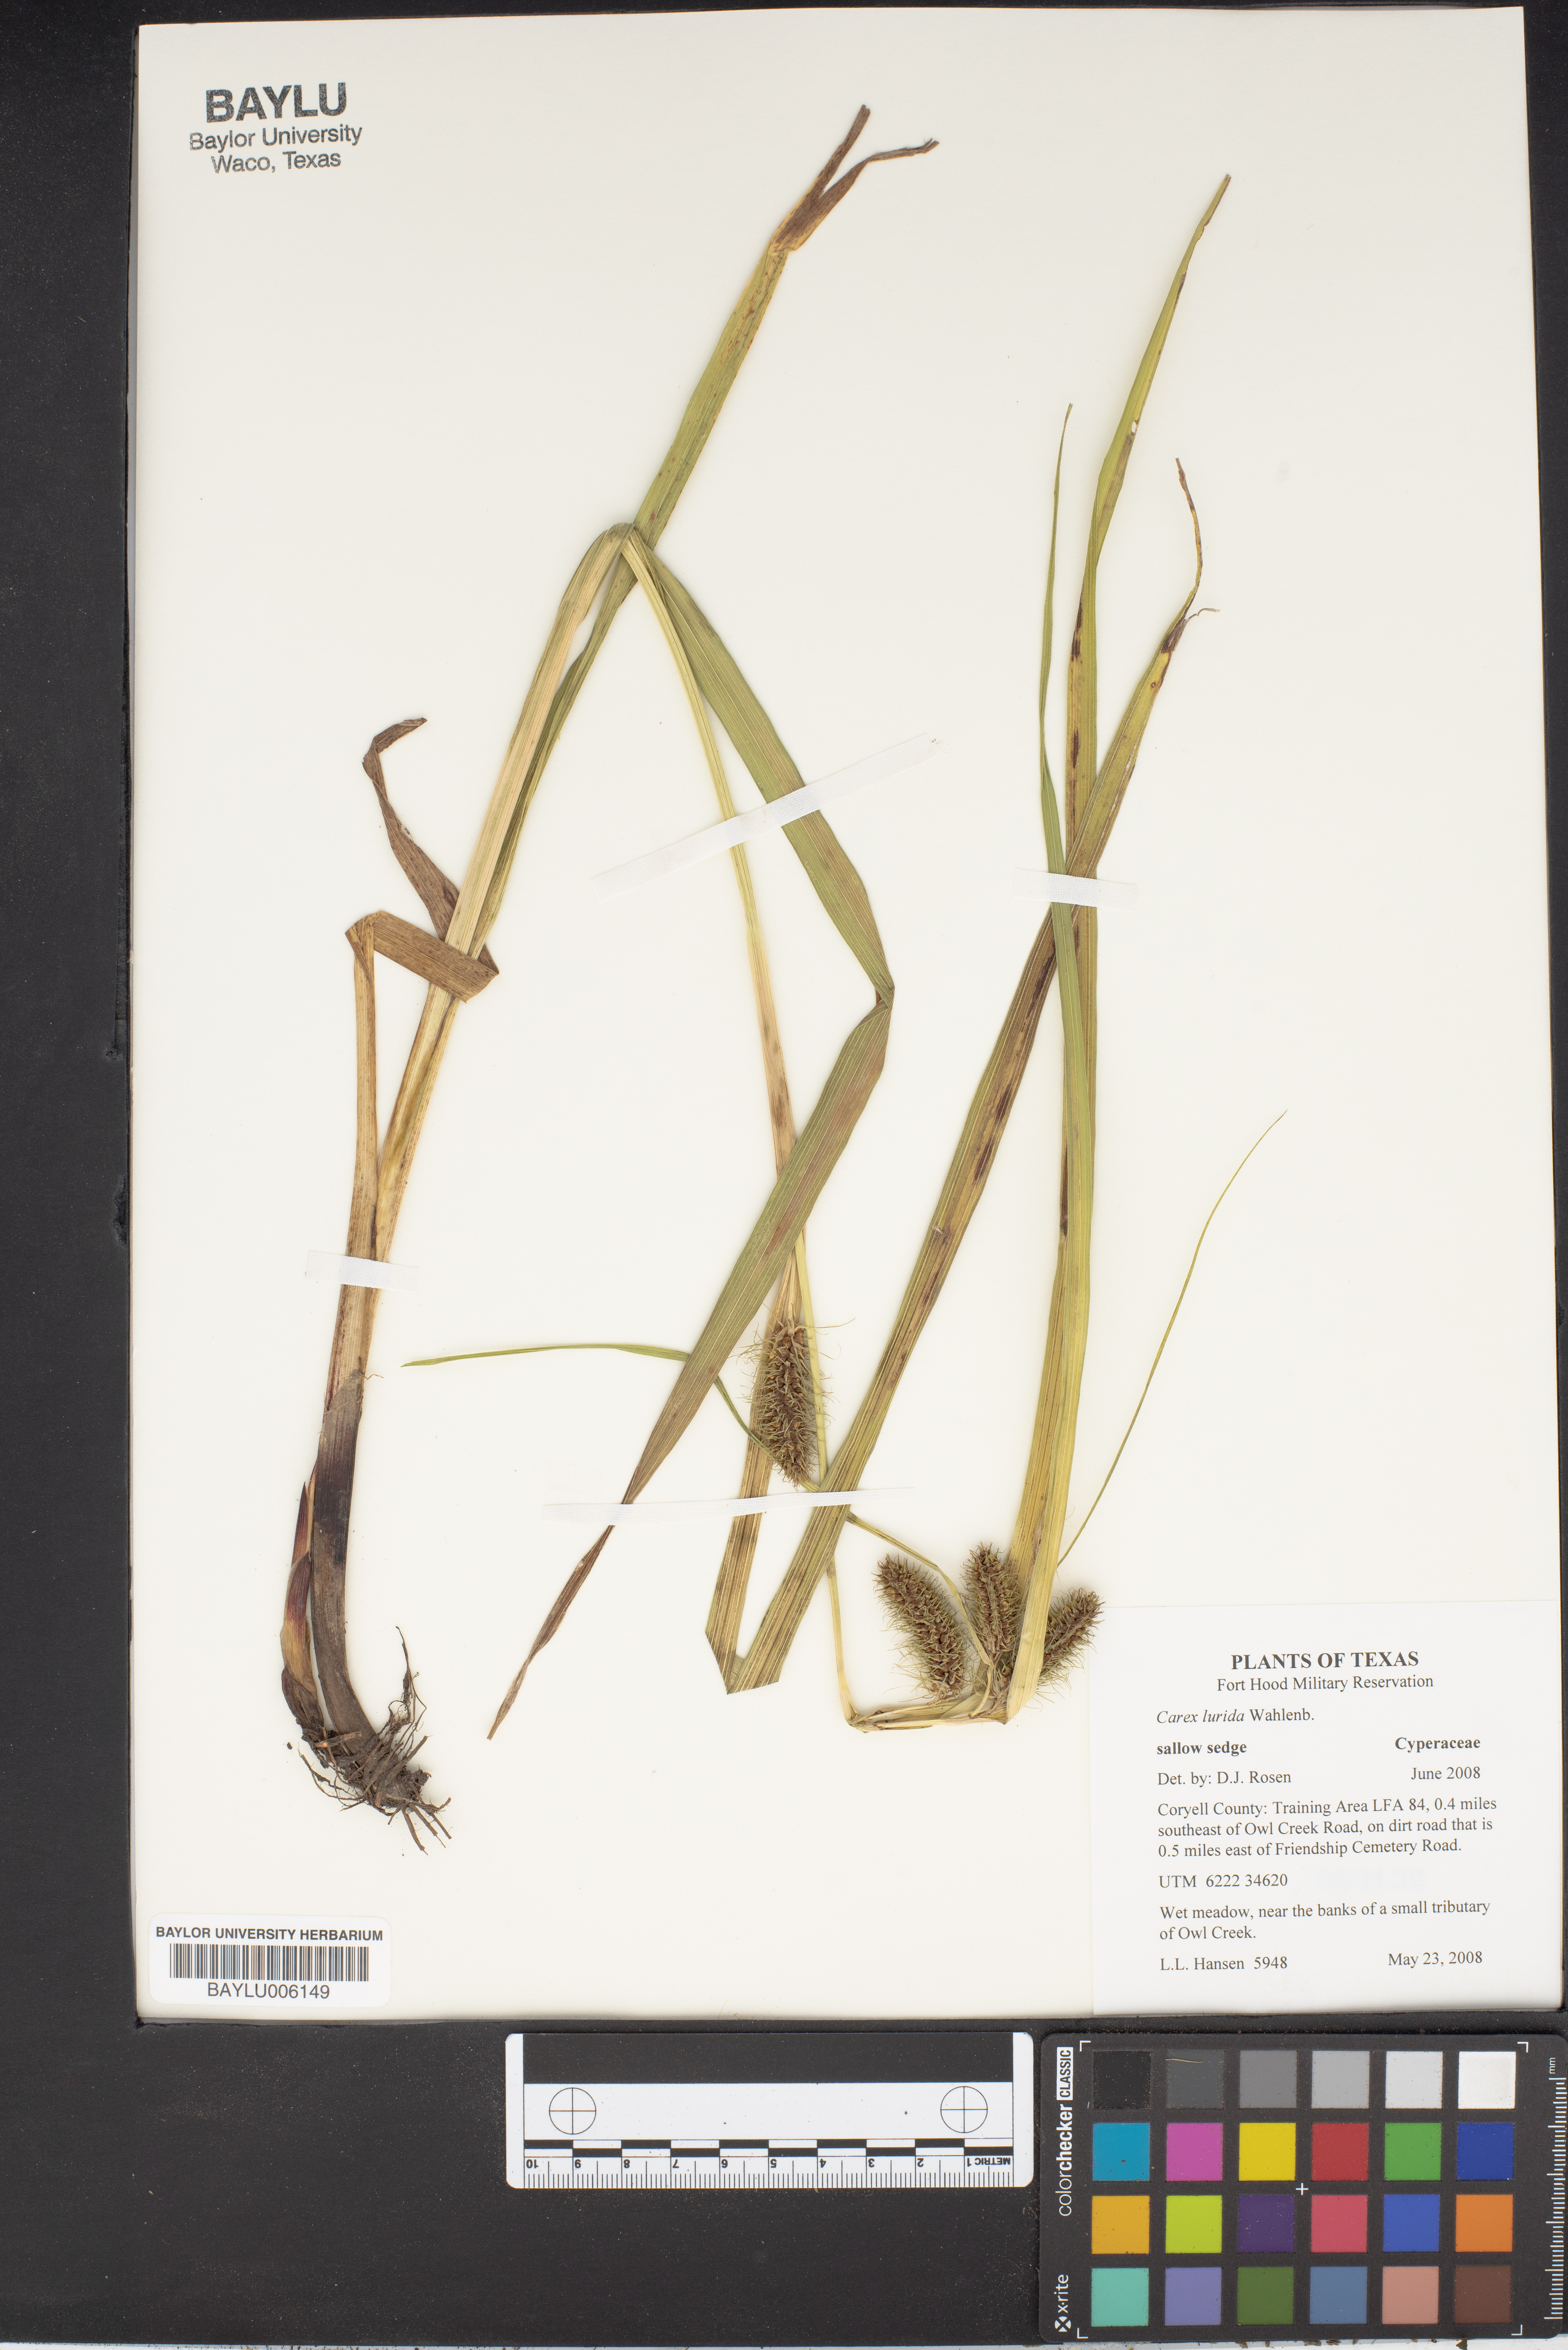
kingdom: Plantae
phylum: Tracheophyta
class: Liliopsida
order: Poales
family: Cyperaceae
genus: Carex
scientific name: Carex lurida
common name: Sallow sedge
